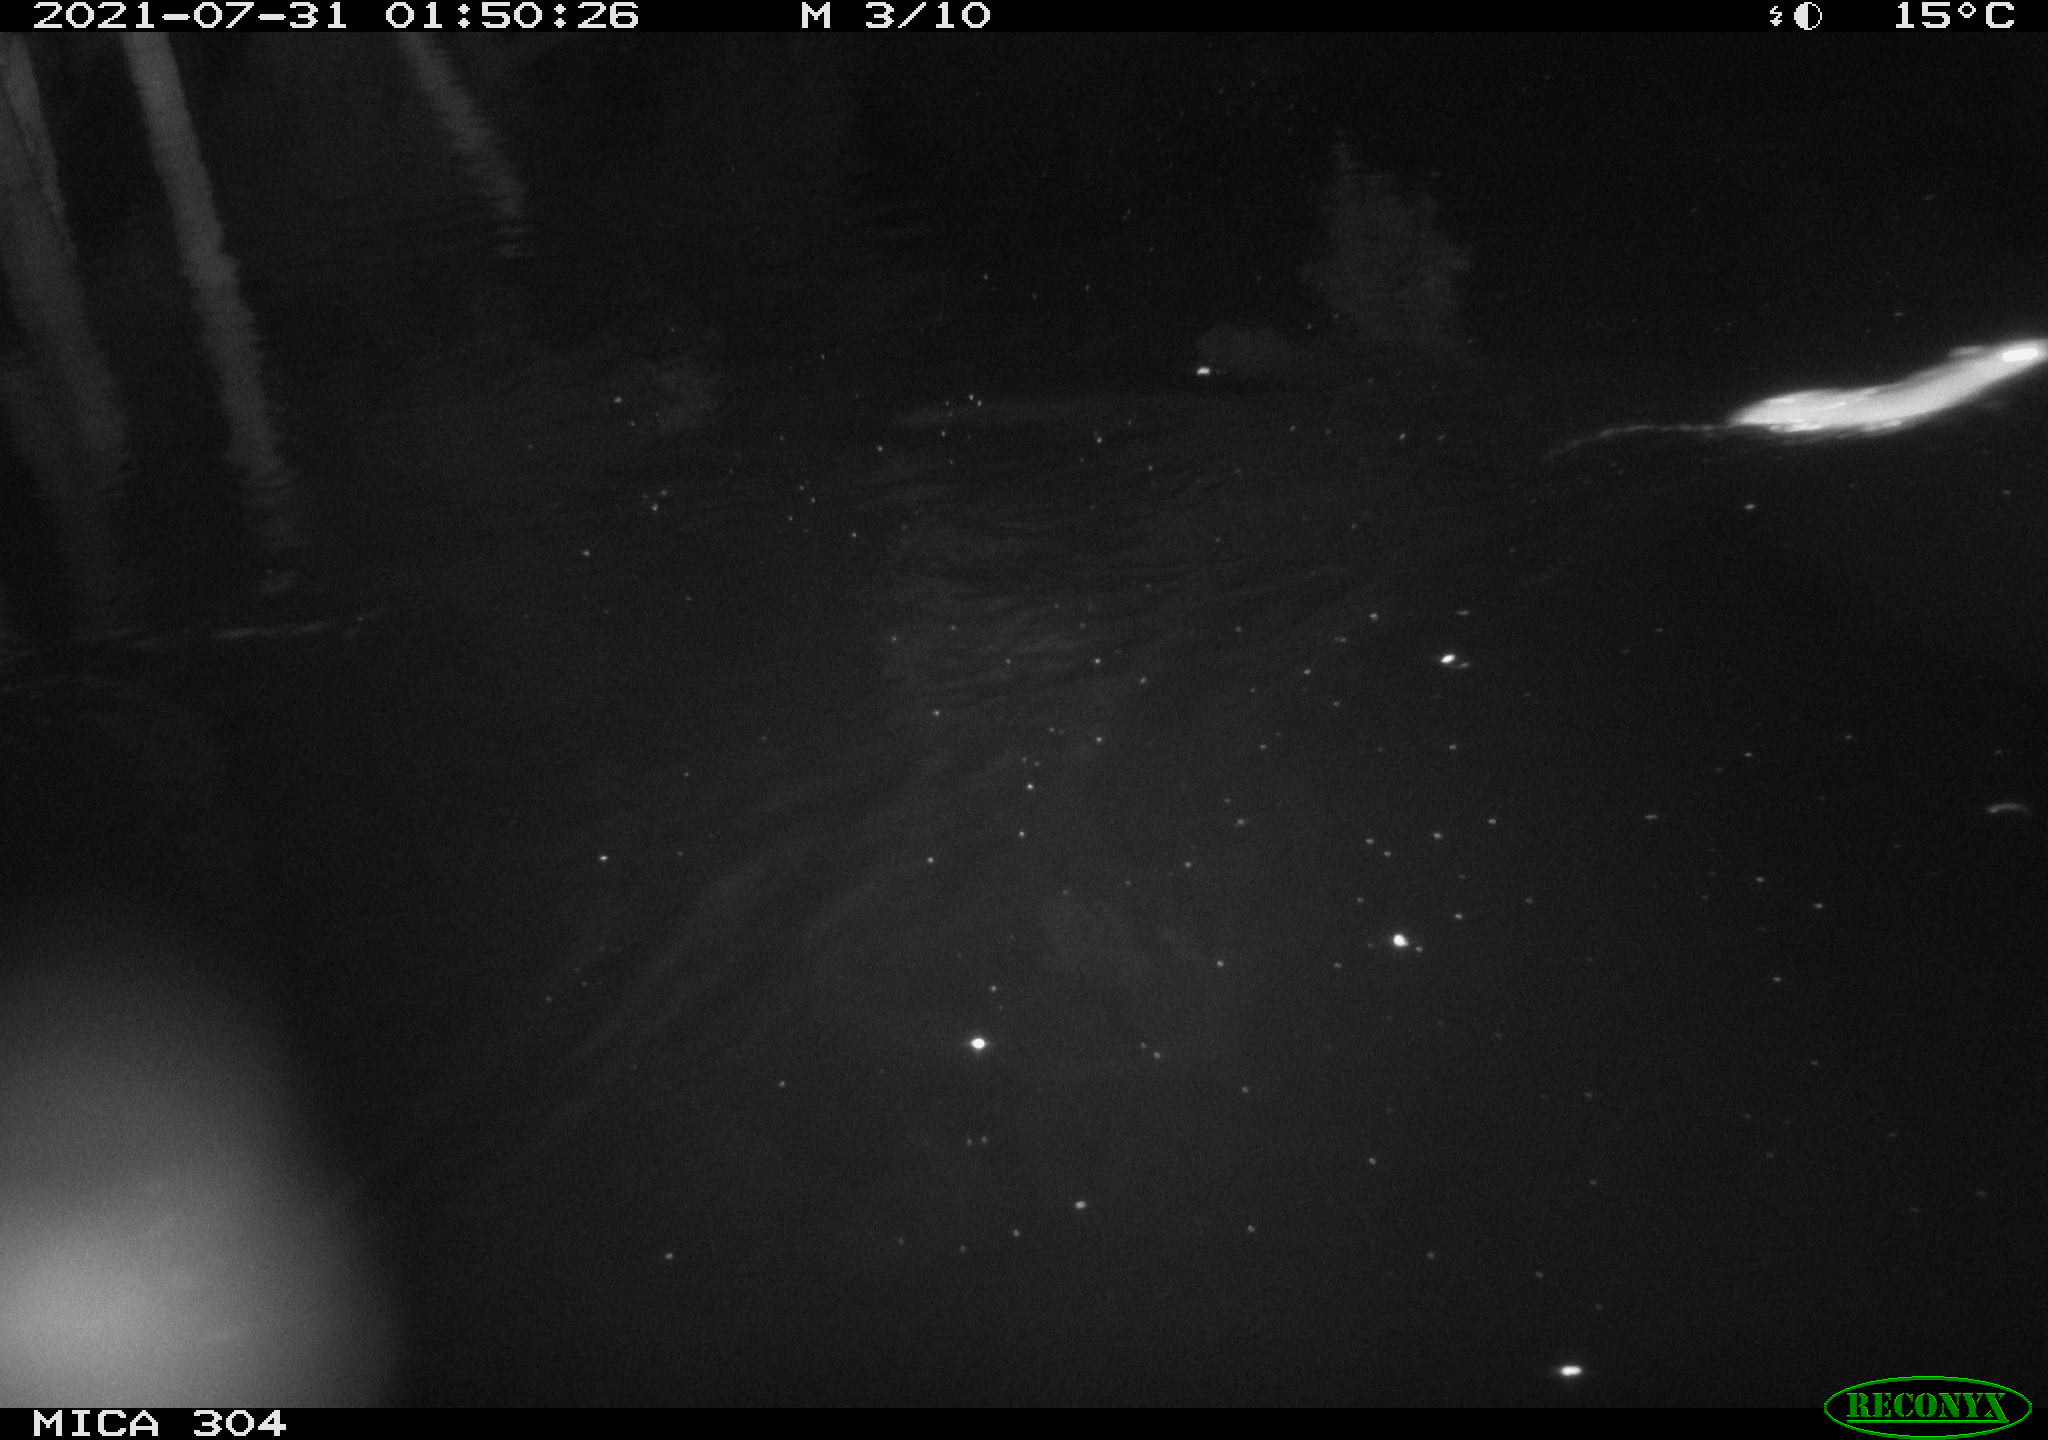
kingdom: Animalia
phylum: Chordata
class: Mammalia
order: Rodentia
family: Muridae
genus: Rattus
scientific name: Rattus norvegicus
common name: Brown rat
